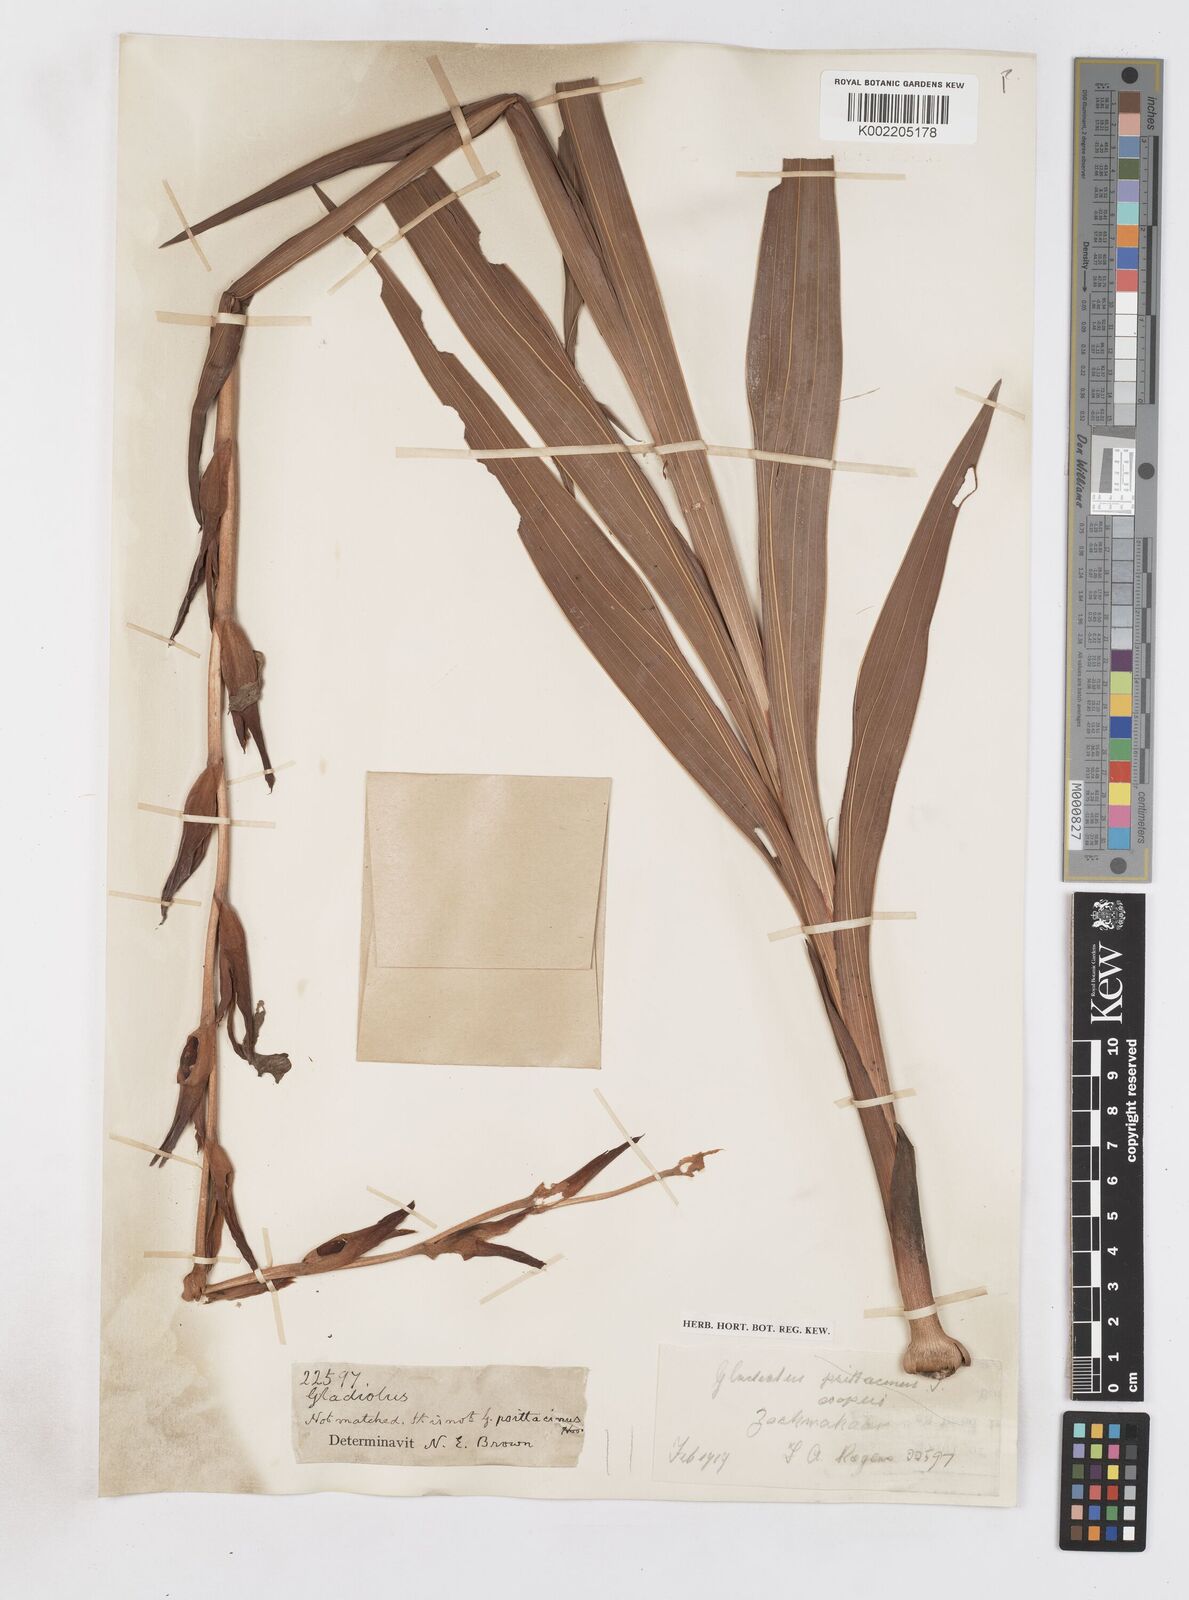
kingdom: Plantae
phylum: Tracheophyta
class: Liliopsida
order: Asparagales
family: Iridaceae
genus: Gladiolus
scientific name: Gladiolus dalenii
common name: Cornflag
